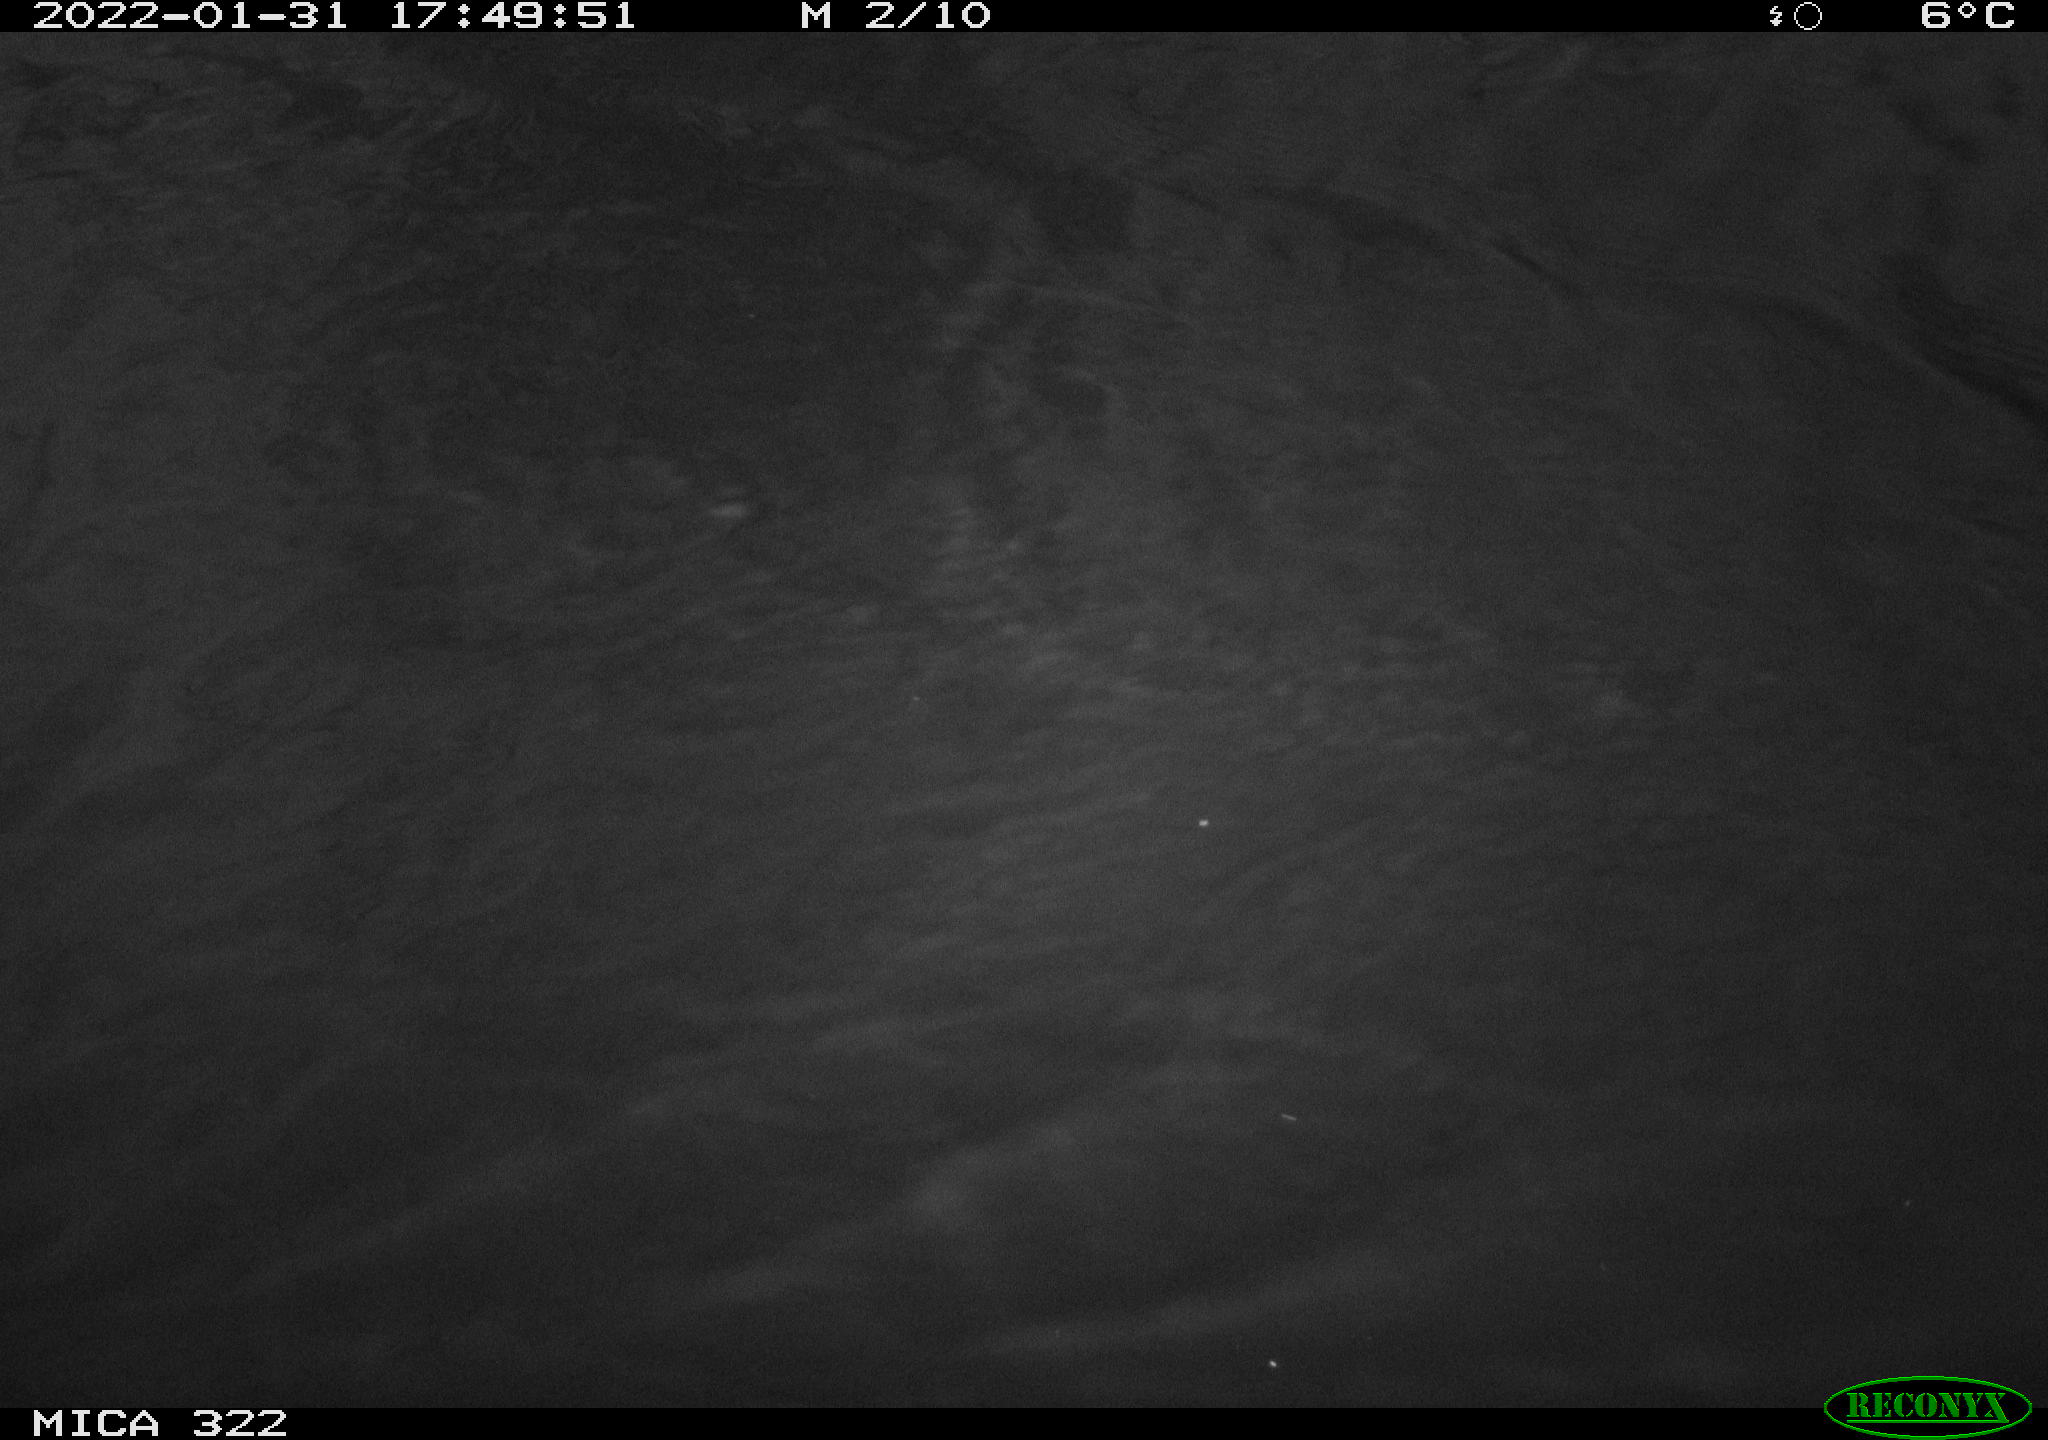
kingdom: Animalia
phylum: Chordata
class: Aves
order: Gruiformes
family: Rallidae
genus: Gallinula
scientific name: Gallinula chloropus
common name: Common moorhen
